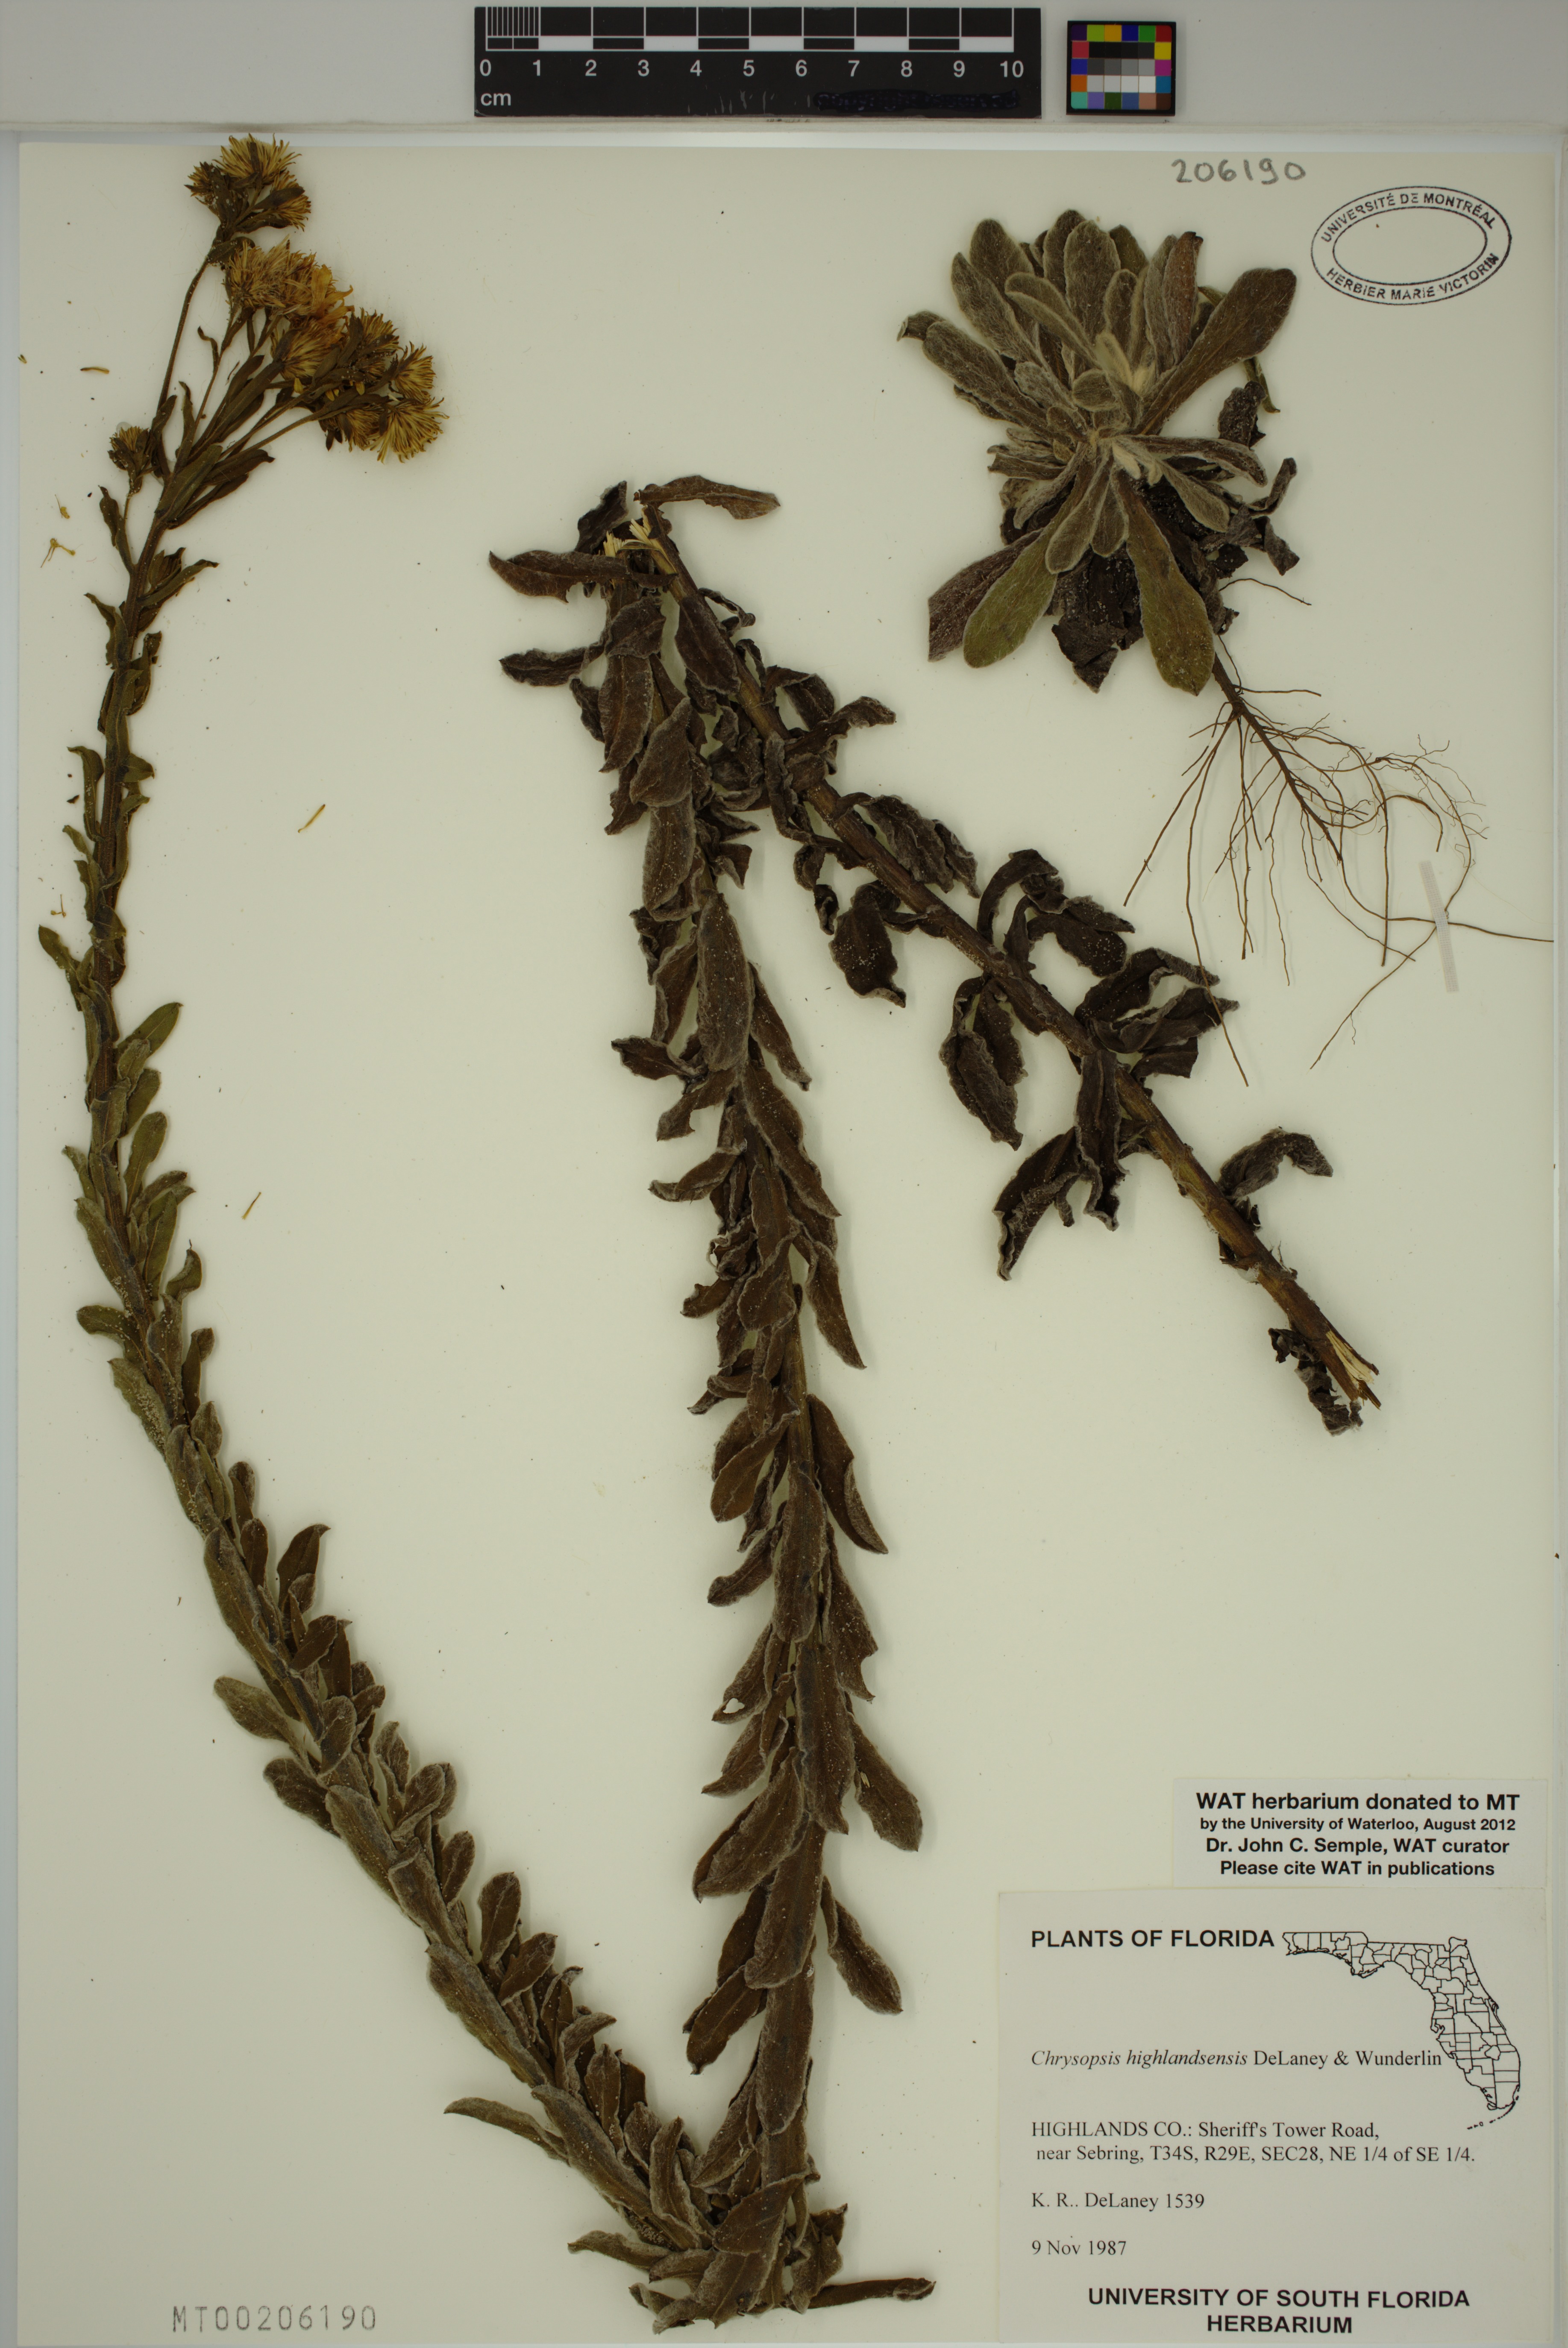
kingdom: Plantae
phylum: Tracheophyta
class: Magnoliopsida
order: Asterales
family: Asteraceae
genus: Chrysopsis
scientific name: Chrysopsis floridana
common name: Florida golden-aster
